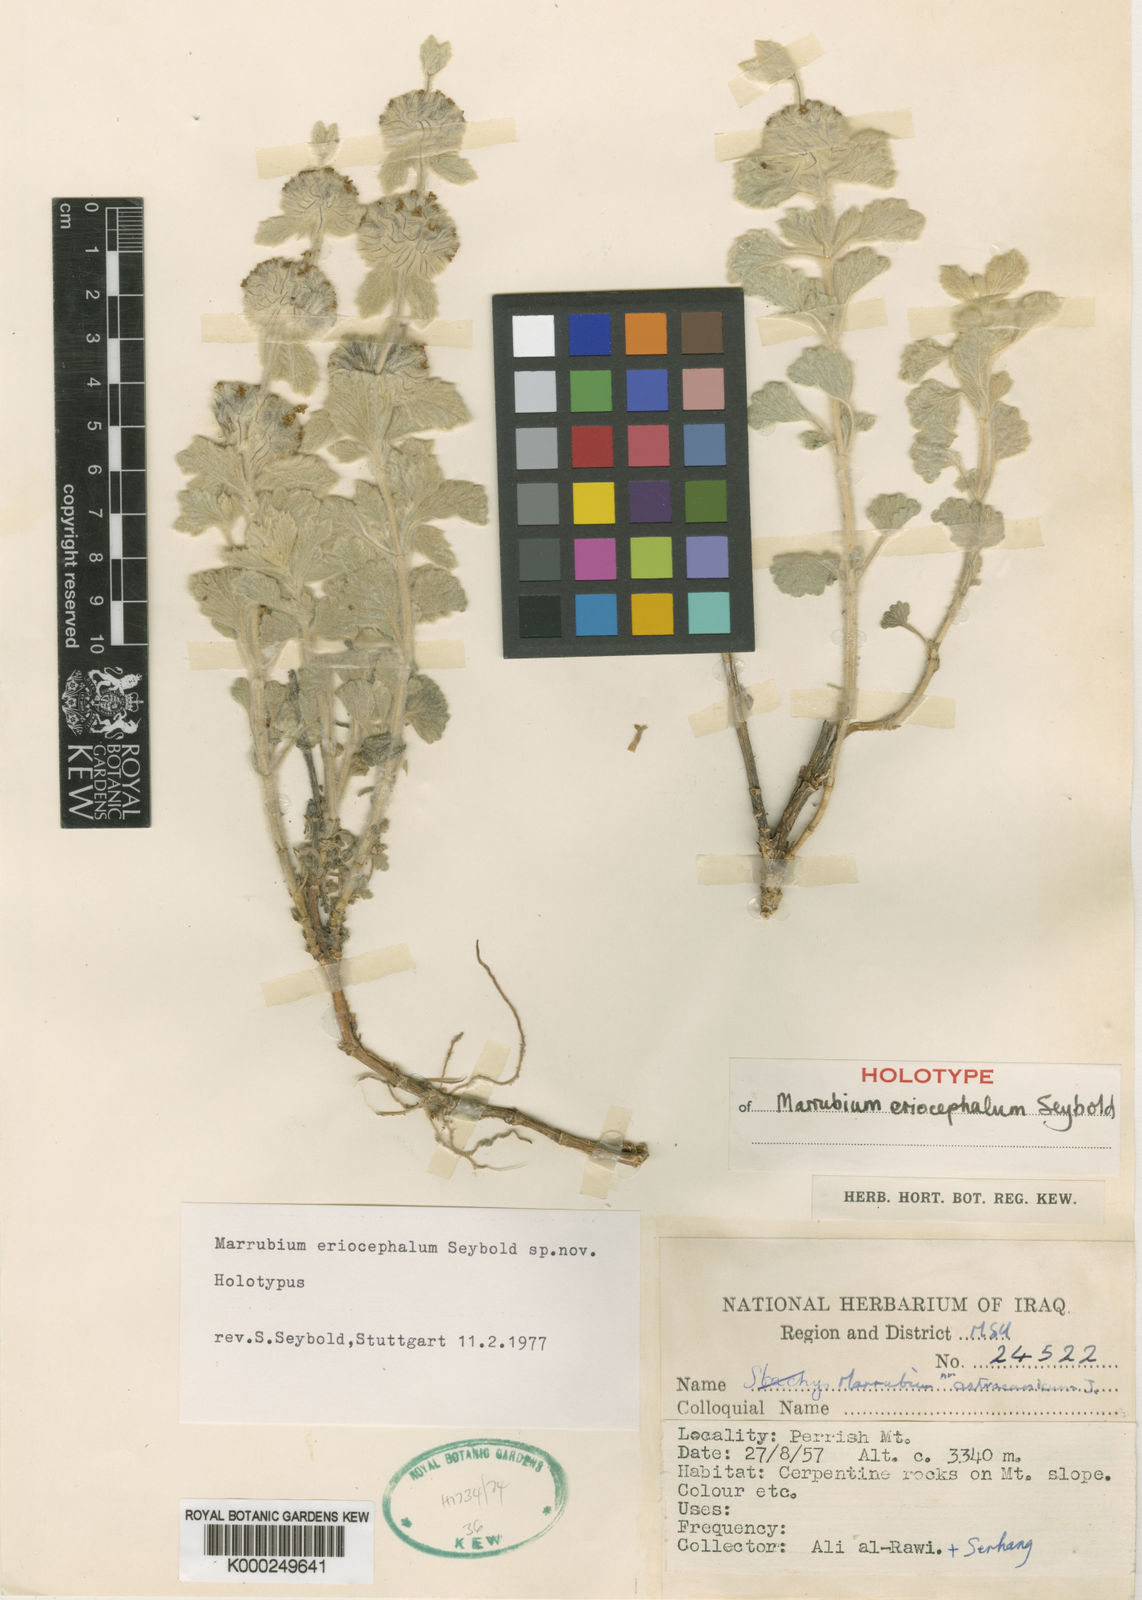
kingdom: Plantae
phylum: Tracheophyta
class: Magnoliopsida
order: Lamiales
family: Lamiaceae
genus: Marrubium
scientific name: Marrubium eriocephalum
